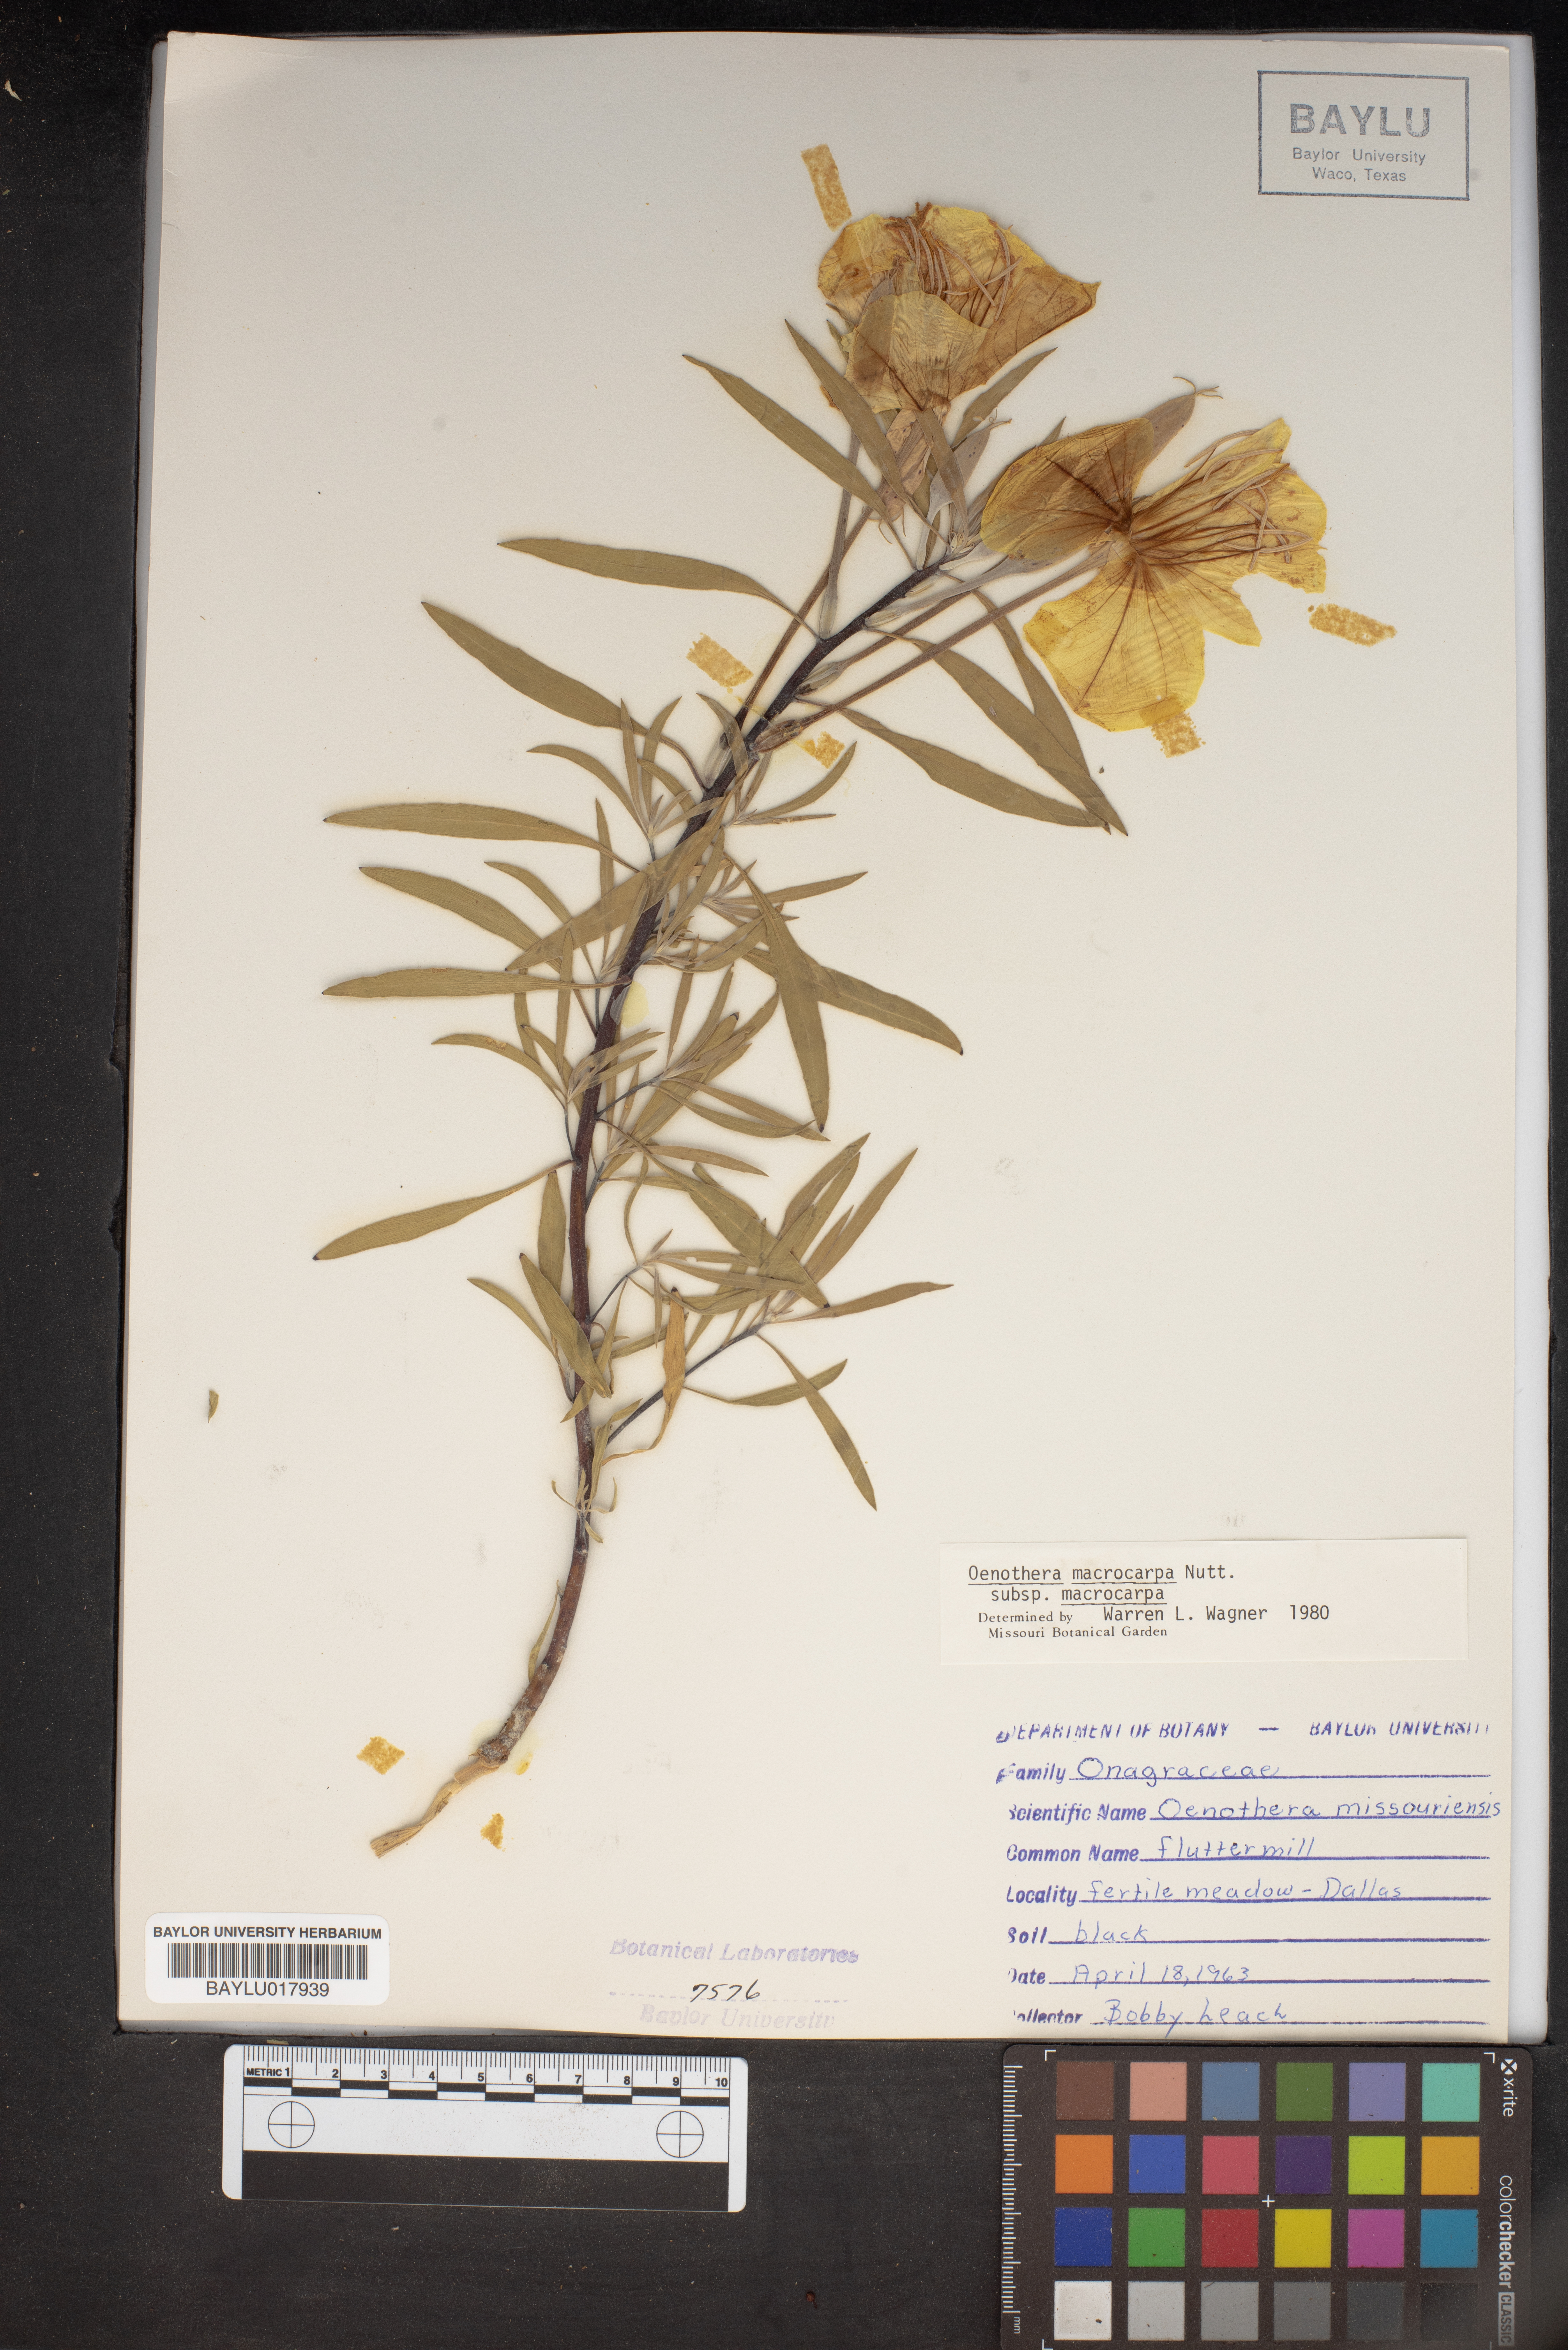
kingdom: Plantae
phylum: Tracheophyta
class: Magnoliopsida
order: Myrtales
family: Onagraceae
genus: Oenothera
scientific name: Oenothera macrocarpa
